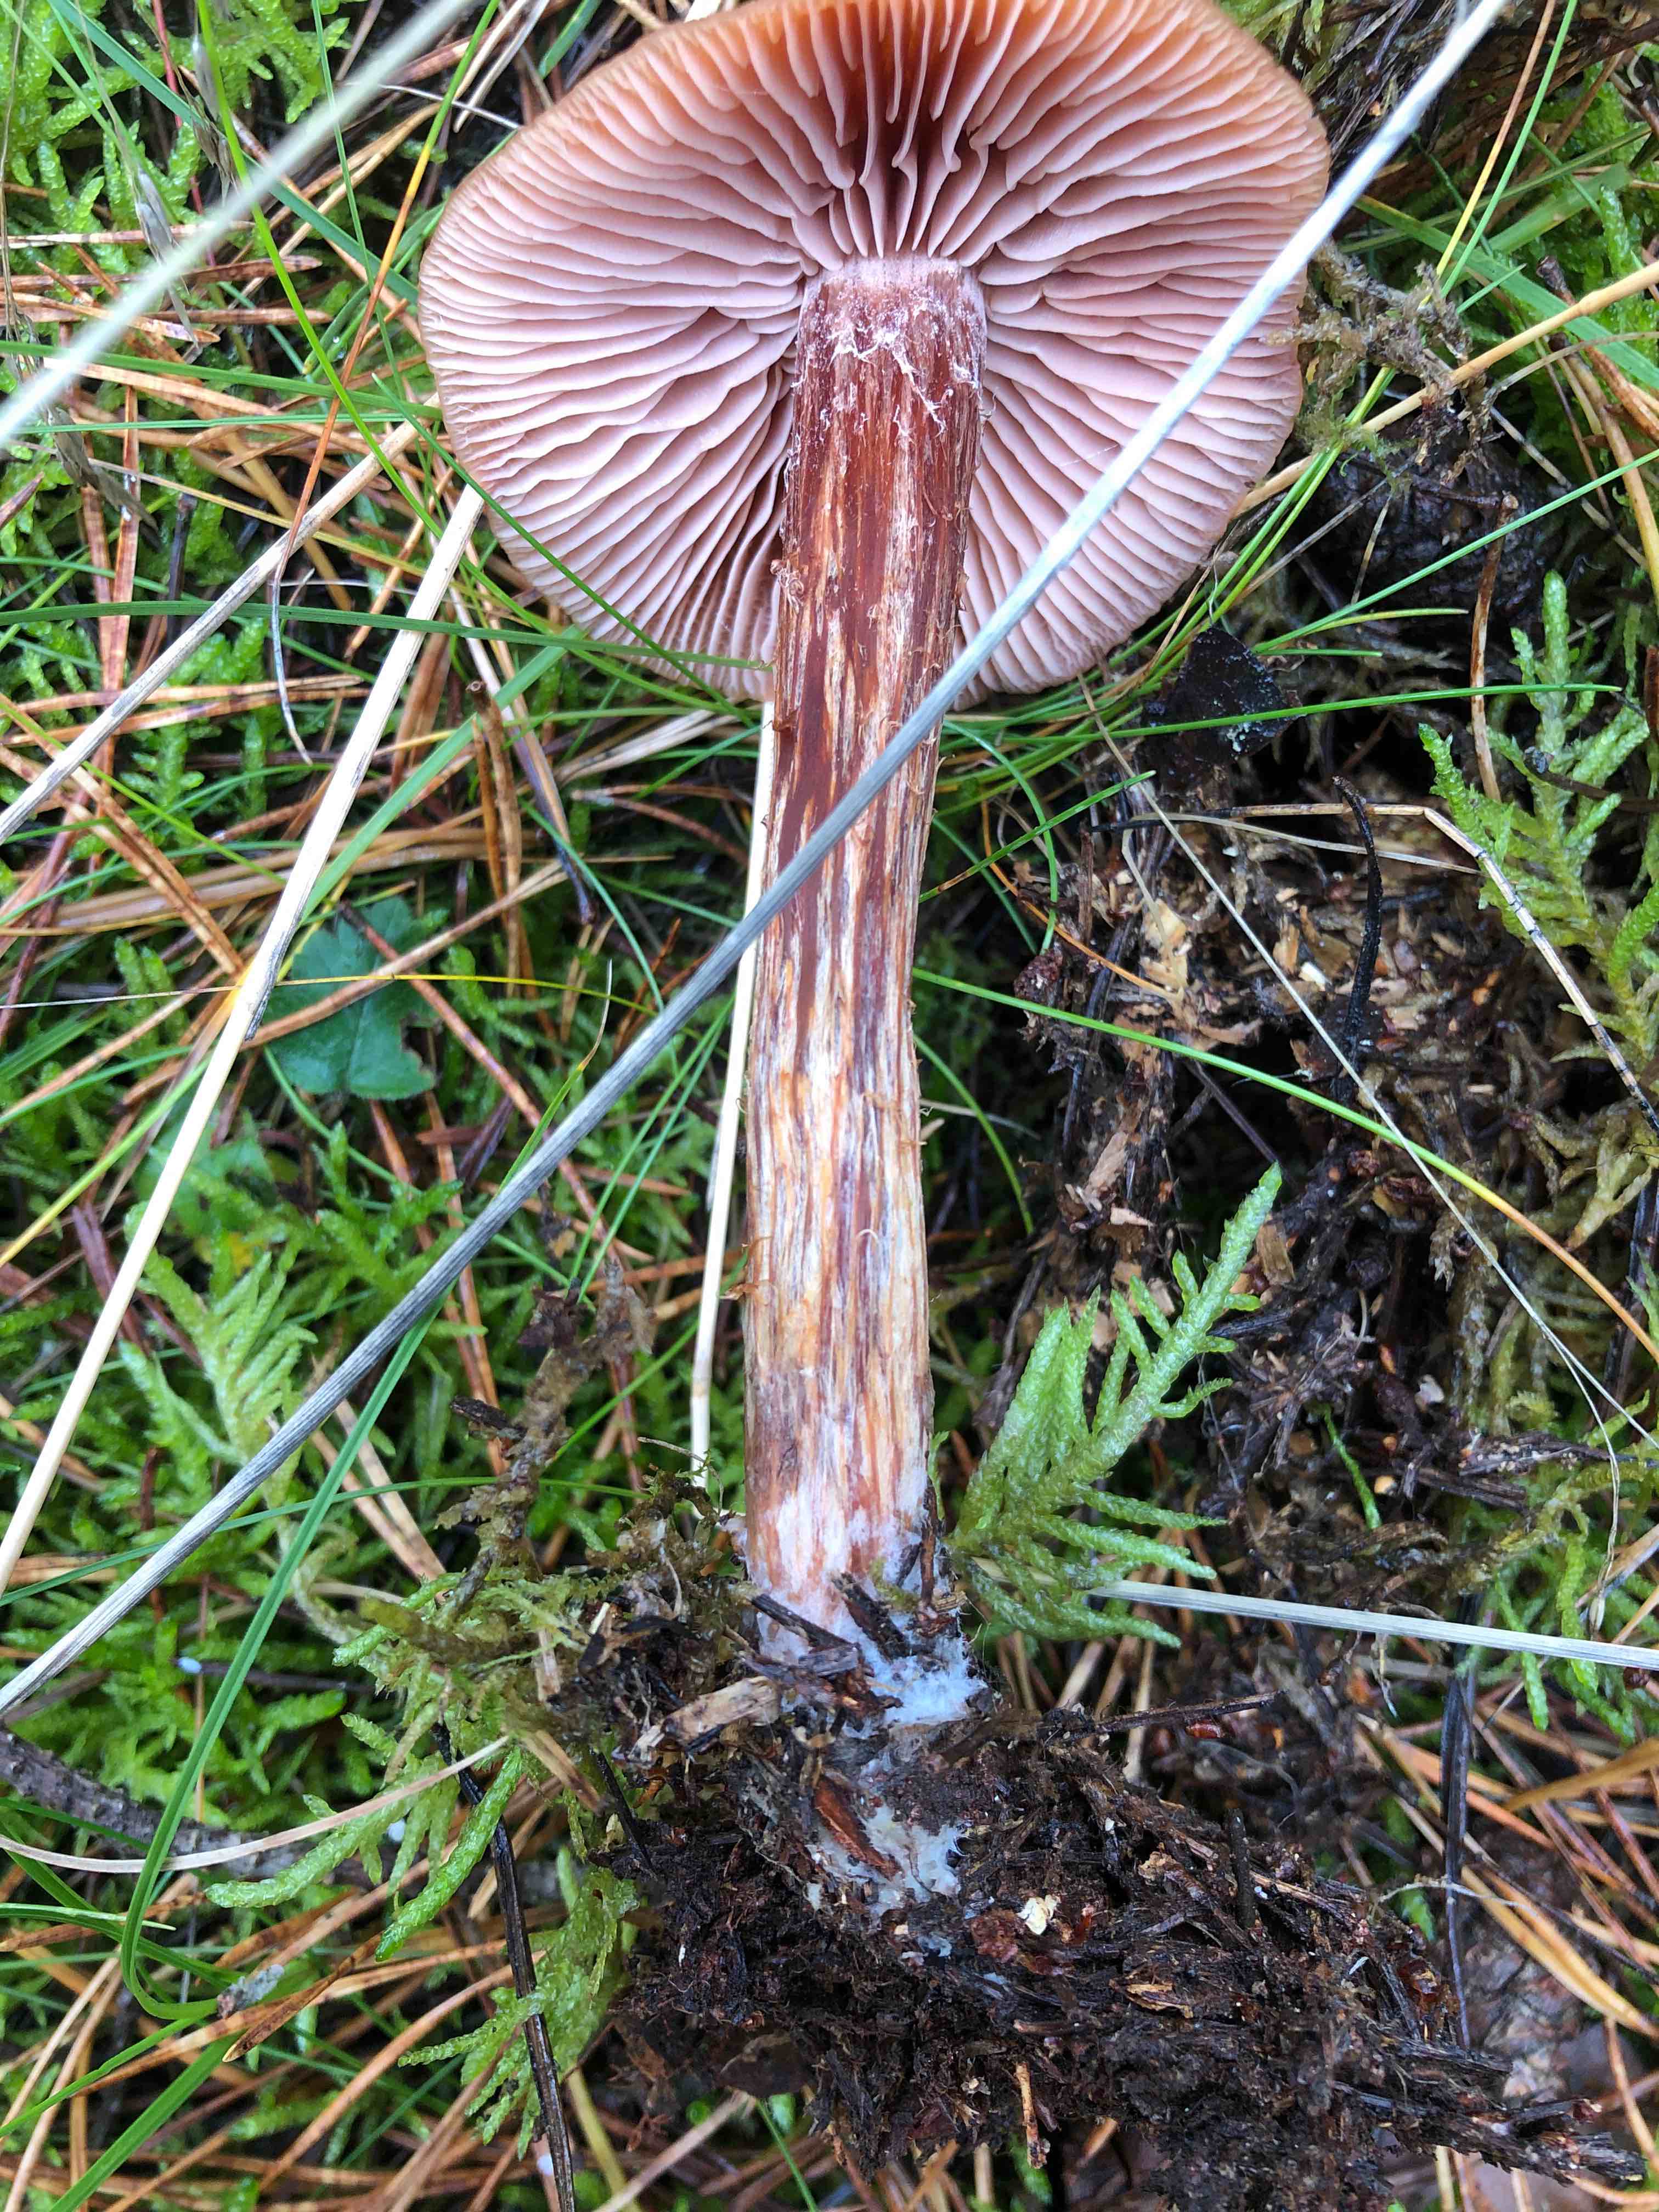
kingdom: Fungi
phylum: Basidiomycota
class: Agaricomycetes
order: Agaricales
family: Hydnangiaceae
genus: Laccaria
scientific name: Laccaria proxima
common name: stor ametysthat
